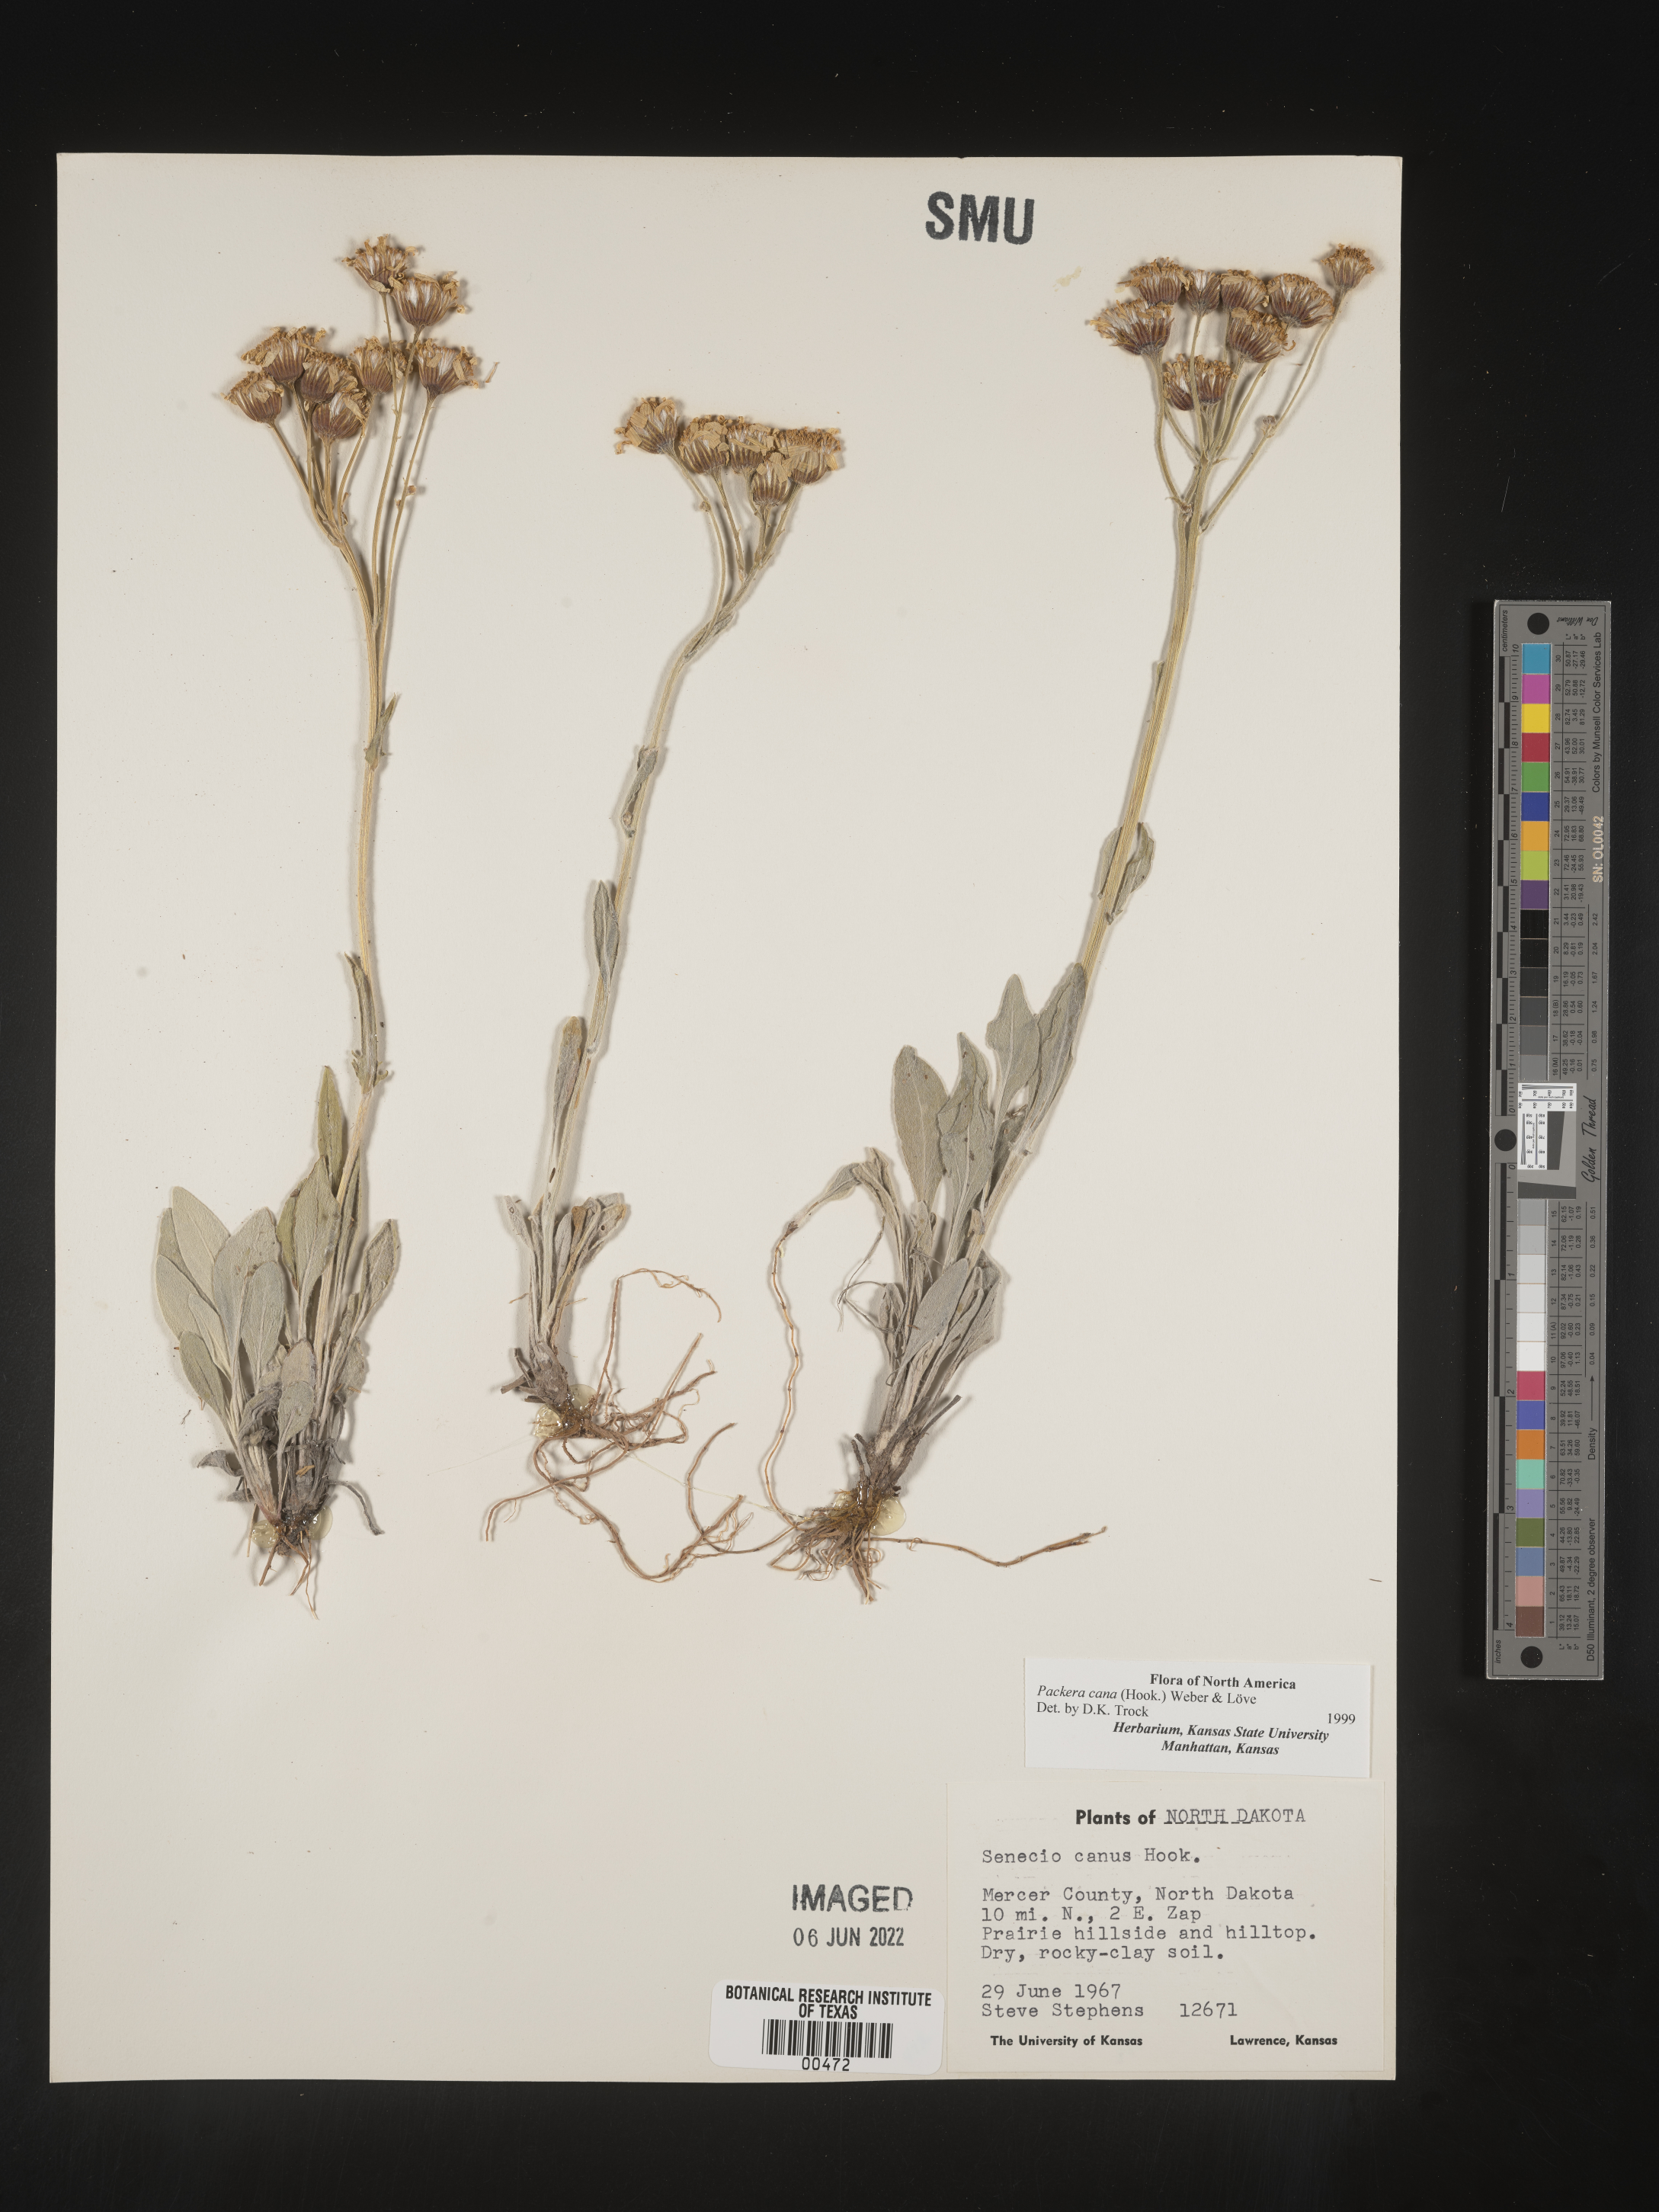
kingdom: Plantae
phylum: Tracheophyta
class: Magnoliopsida
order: Asterales
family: Asteraceae
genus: Packera
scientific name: Packera cana
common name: Woolly groundsel
